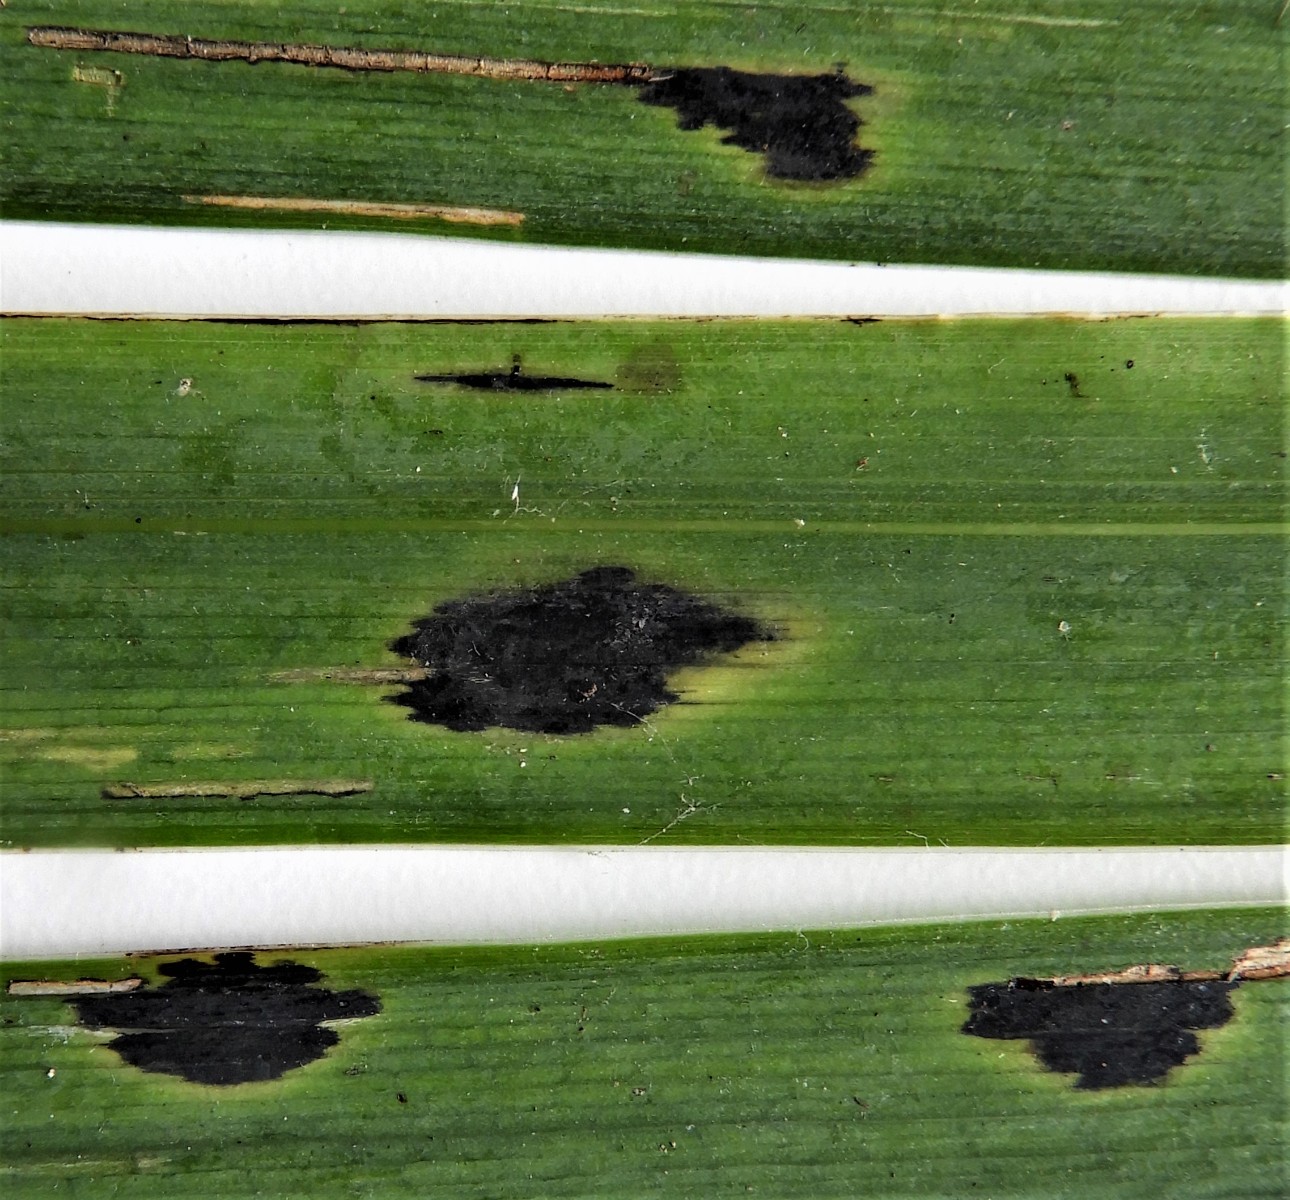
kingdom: Fungi
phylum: Ascomycota
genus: Ectostroma
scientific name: Ectostroma iridis
